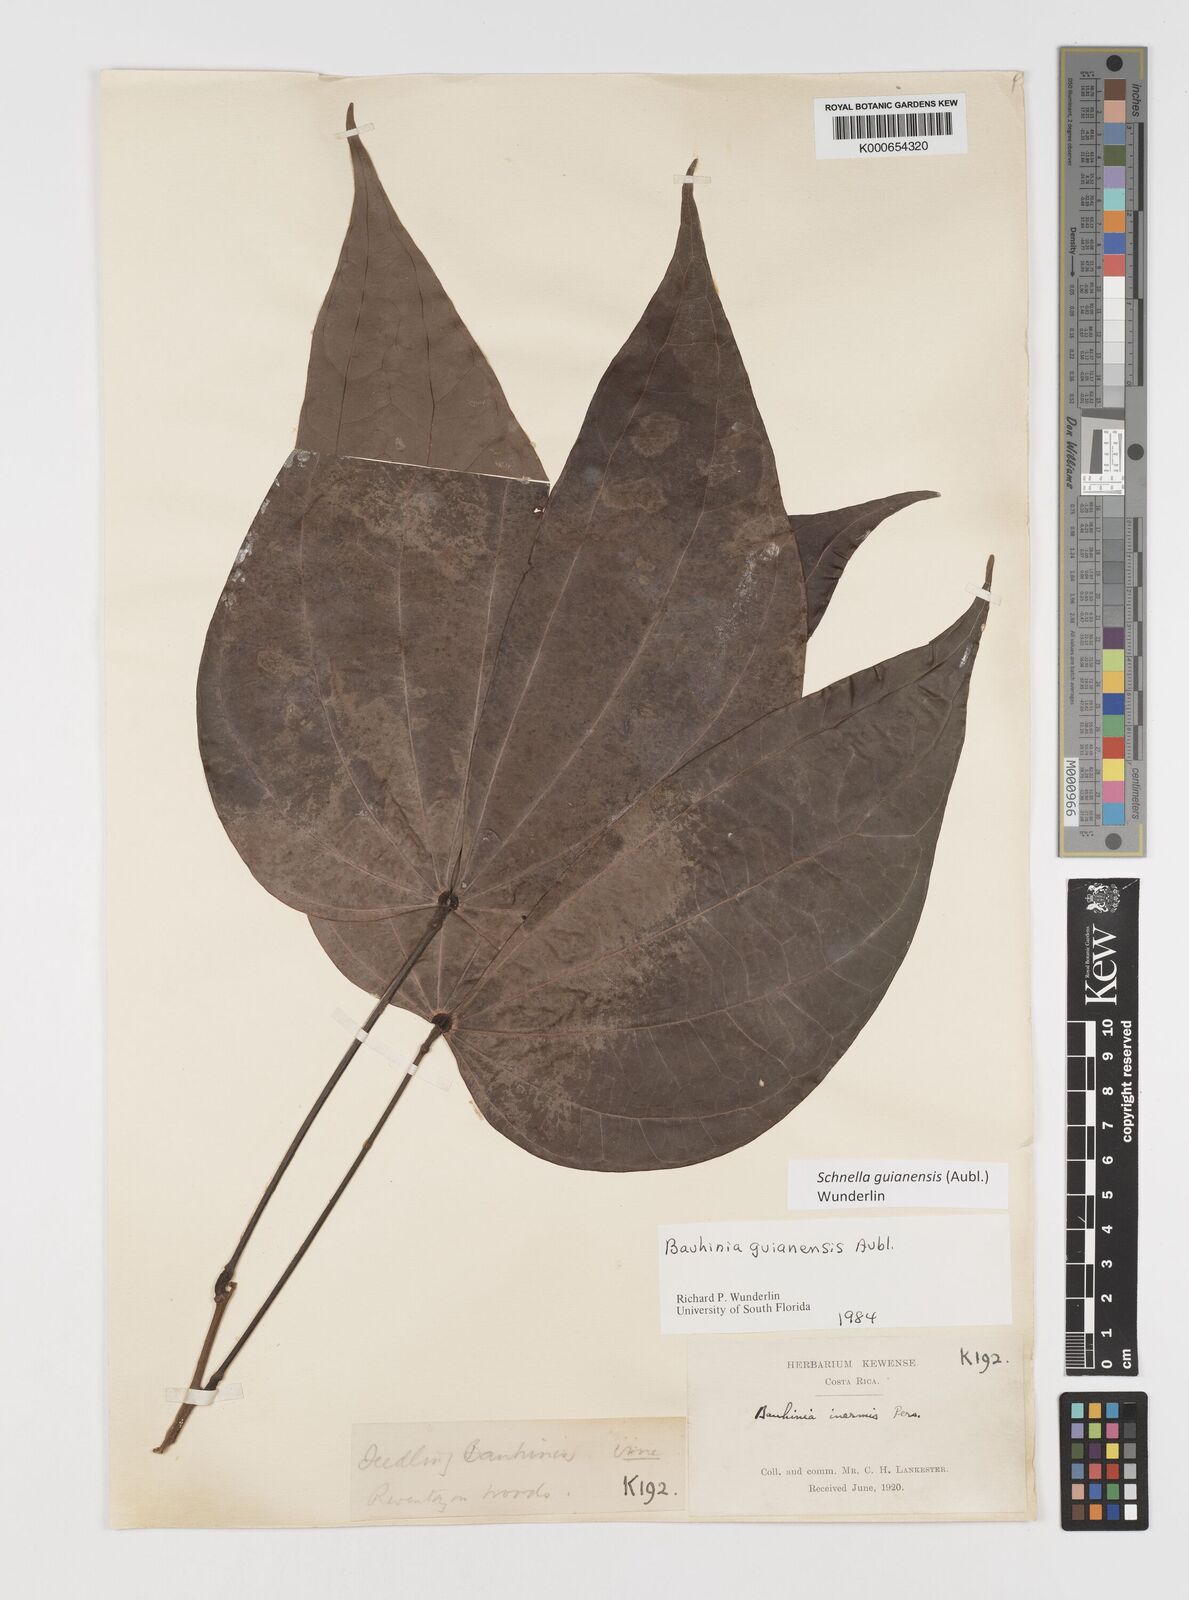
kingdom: Plantae
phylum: Tracheophyta
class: Magnoliopsida
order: Fabales
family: Fabaceae
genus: Schnella
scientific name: Schnella guianensis
